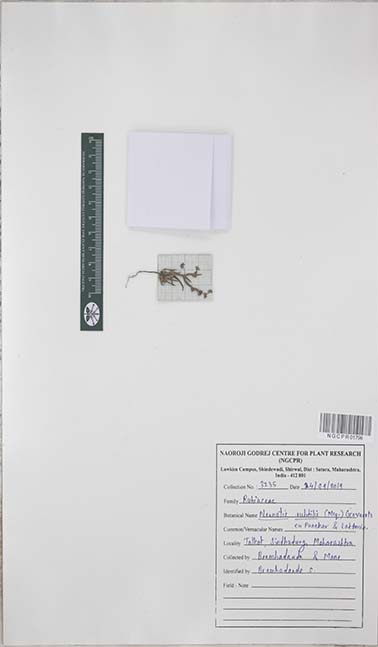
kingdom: Plantae
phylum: Tracheophyta
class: Magnoliopsida
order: Gentianales
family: Rubiaceae
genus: Neanotis
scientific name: Neanotis subtilis
